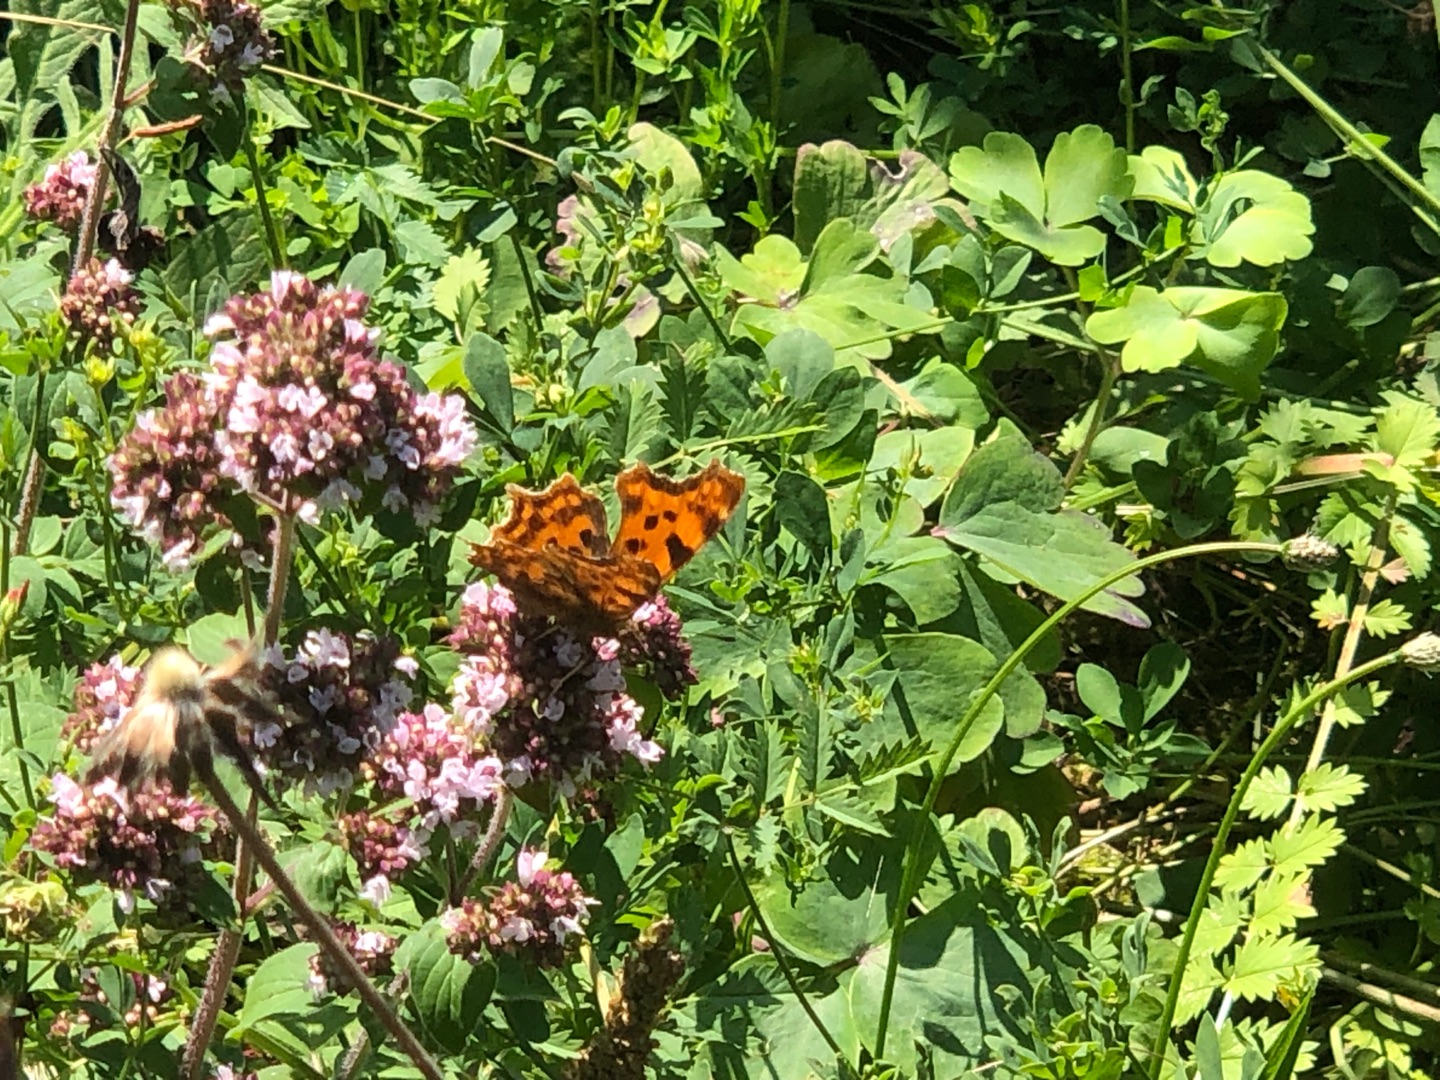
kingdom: Animalia
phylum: Arthropoda
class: Insecta
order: Lepidoptera
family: Nymphalidae
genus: Polygonia
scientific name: Polygonia c-album
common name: Det hvide C
